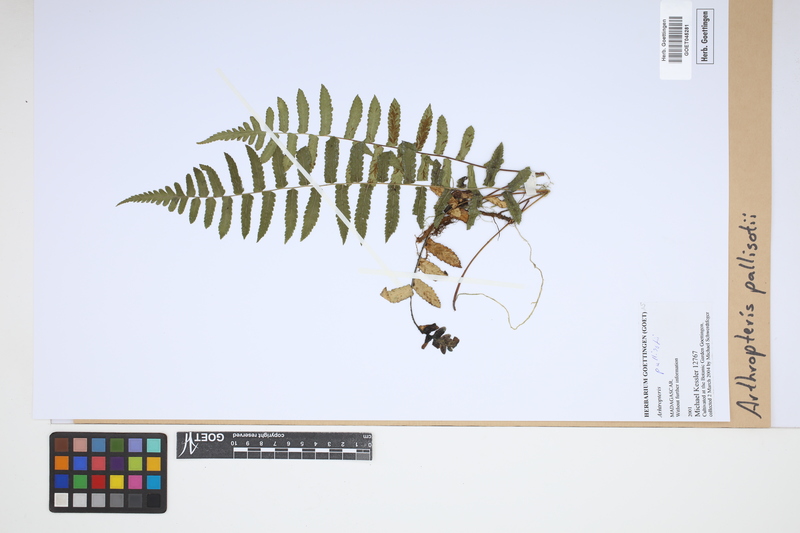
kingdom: Plantae
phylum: Tracheophyta
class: Polypodiopsida
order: Polypodiales
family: Tectariaceae
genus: Arthropteris
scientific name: Arthropteris palisotii
